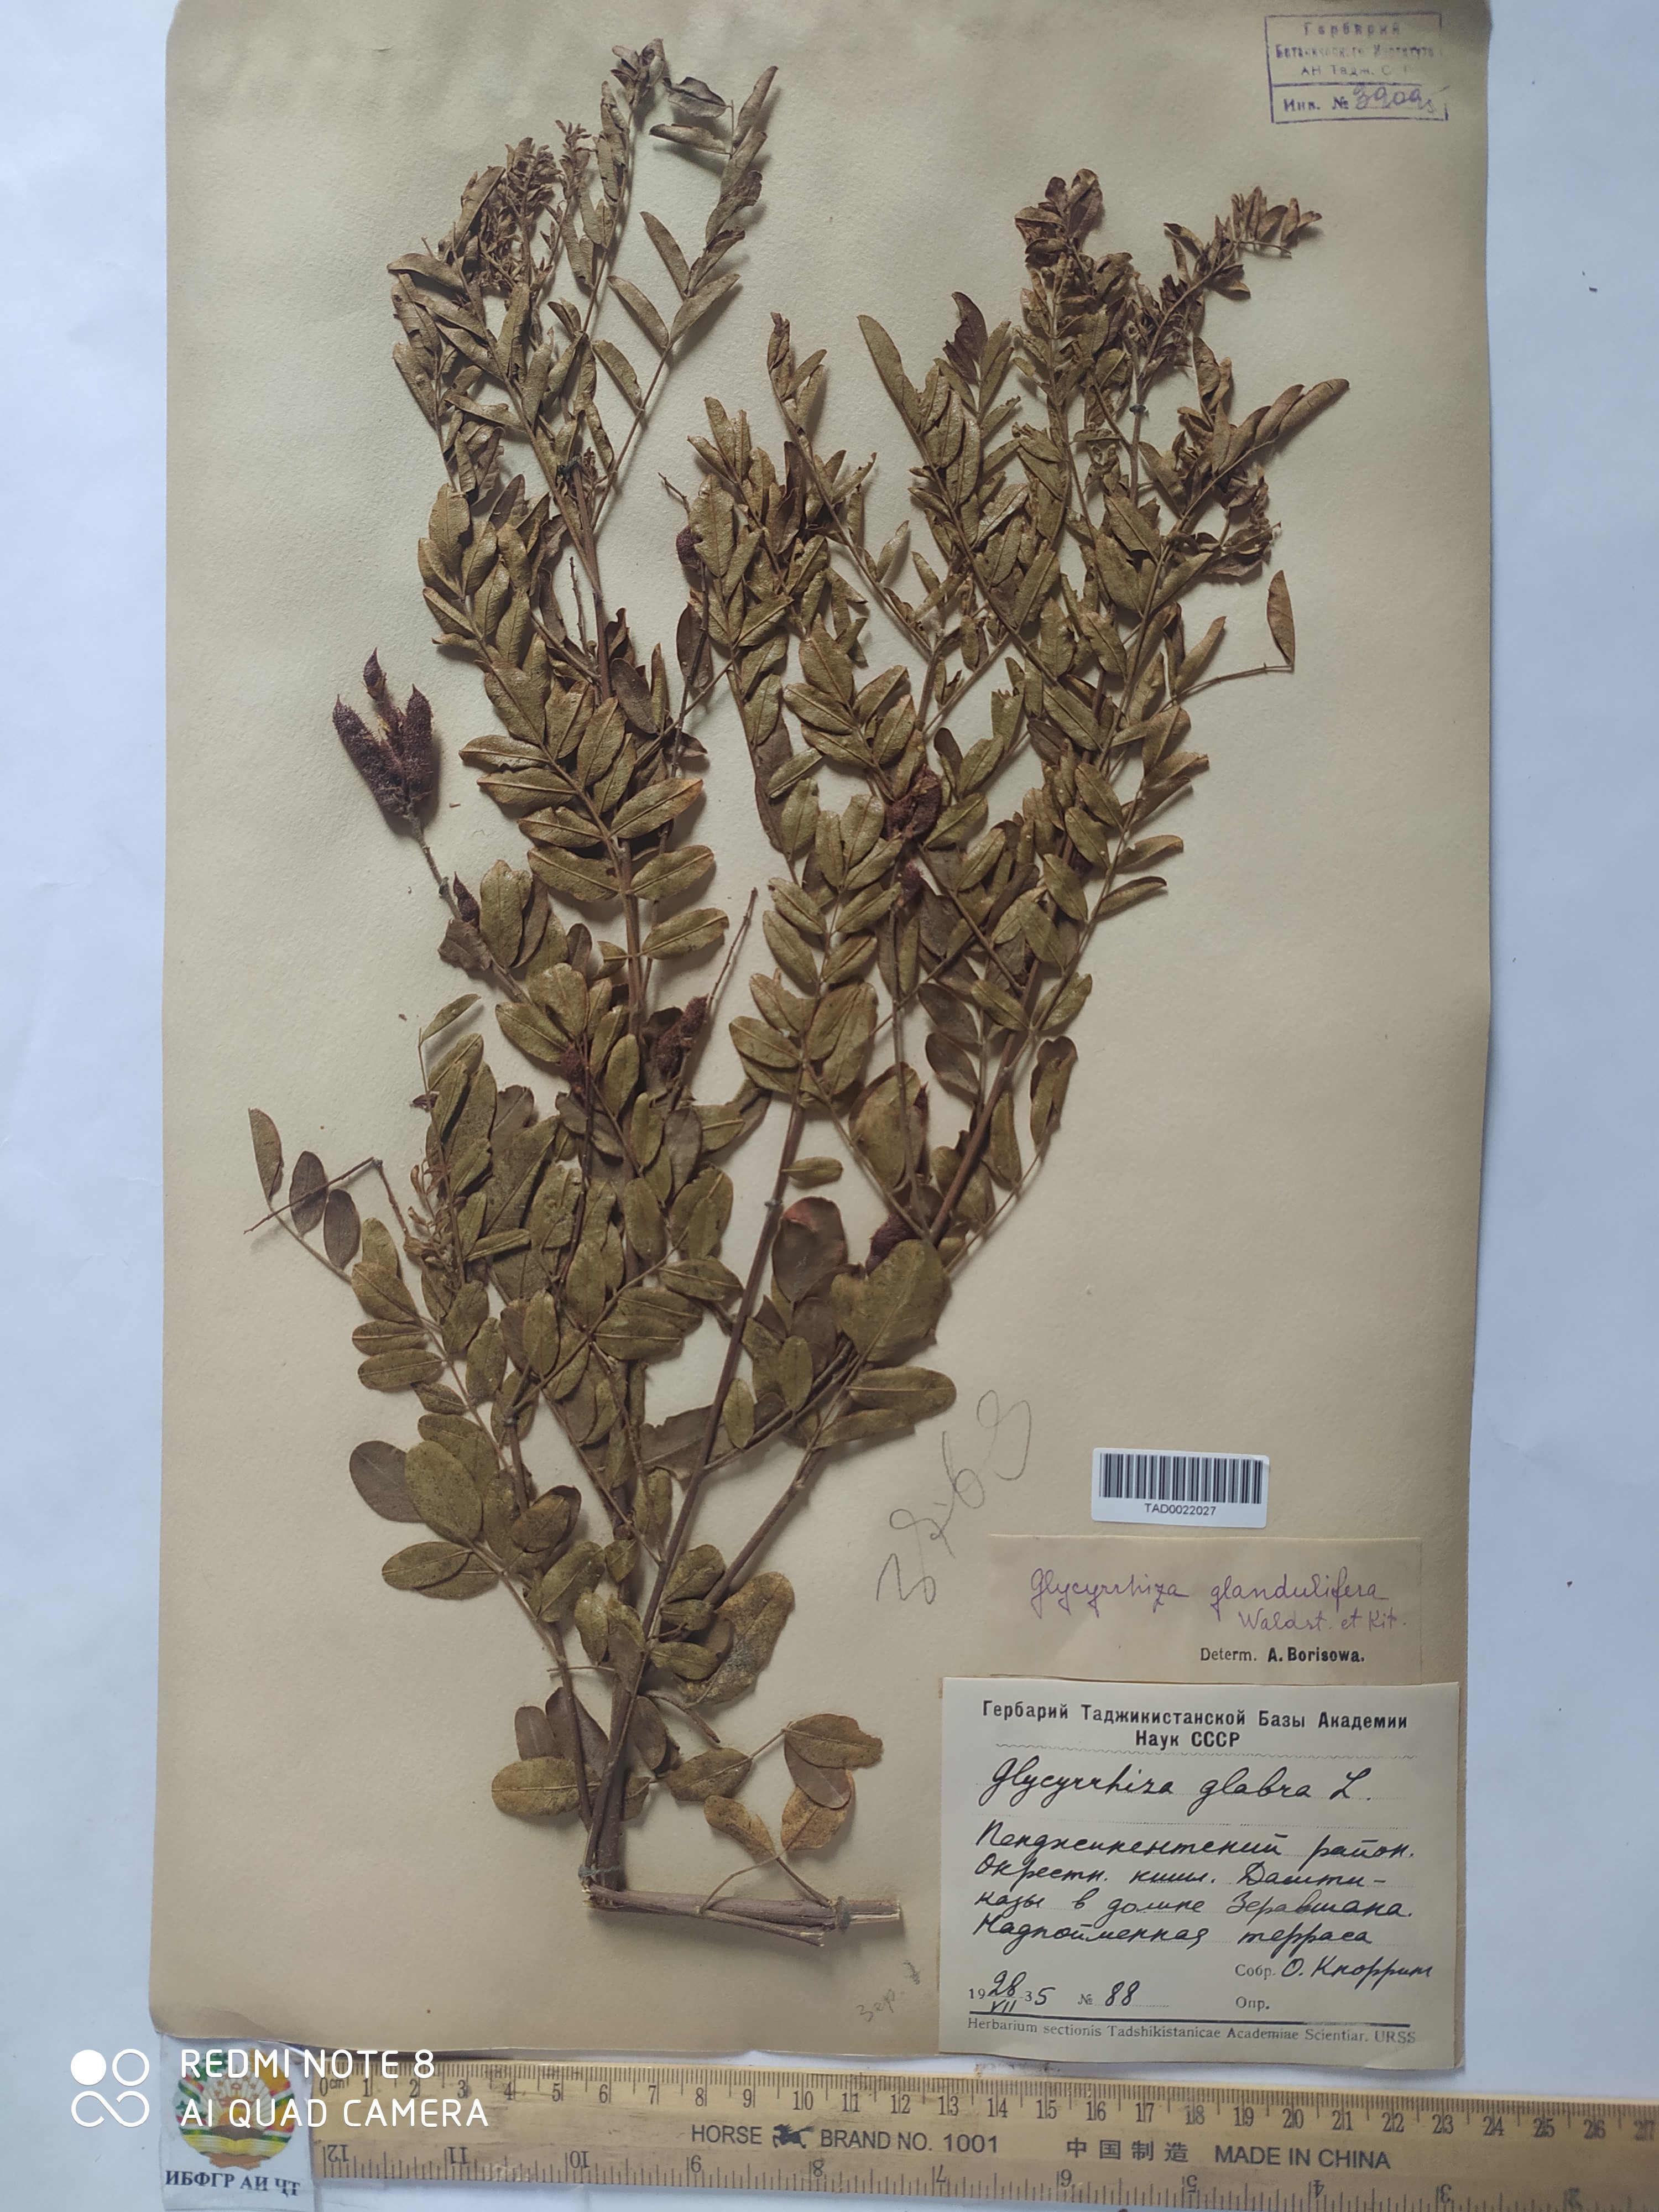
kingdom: Plantae
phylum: Tracheophyta
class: Magnoliopsida
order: Fabales
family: Fabaceae
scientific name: Fabaceae
